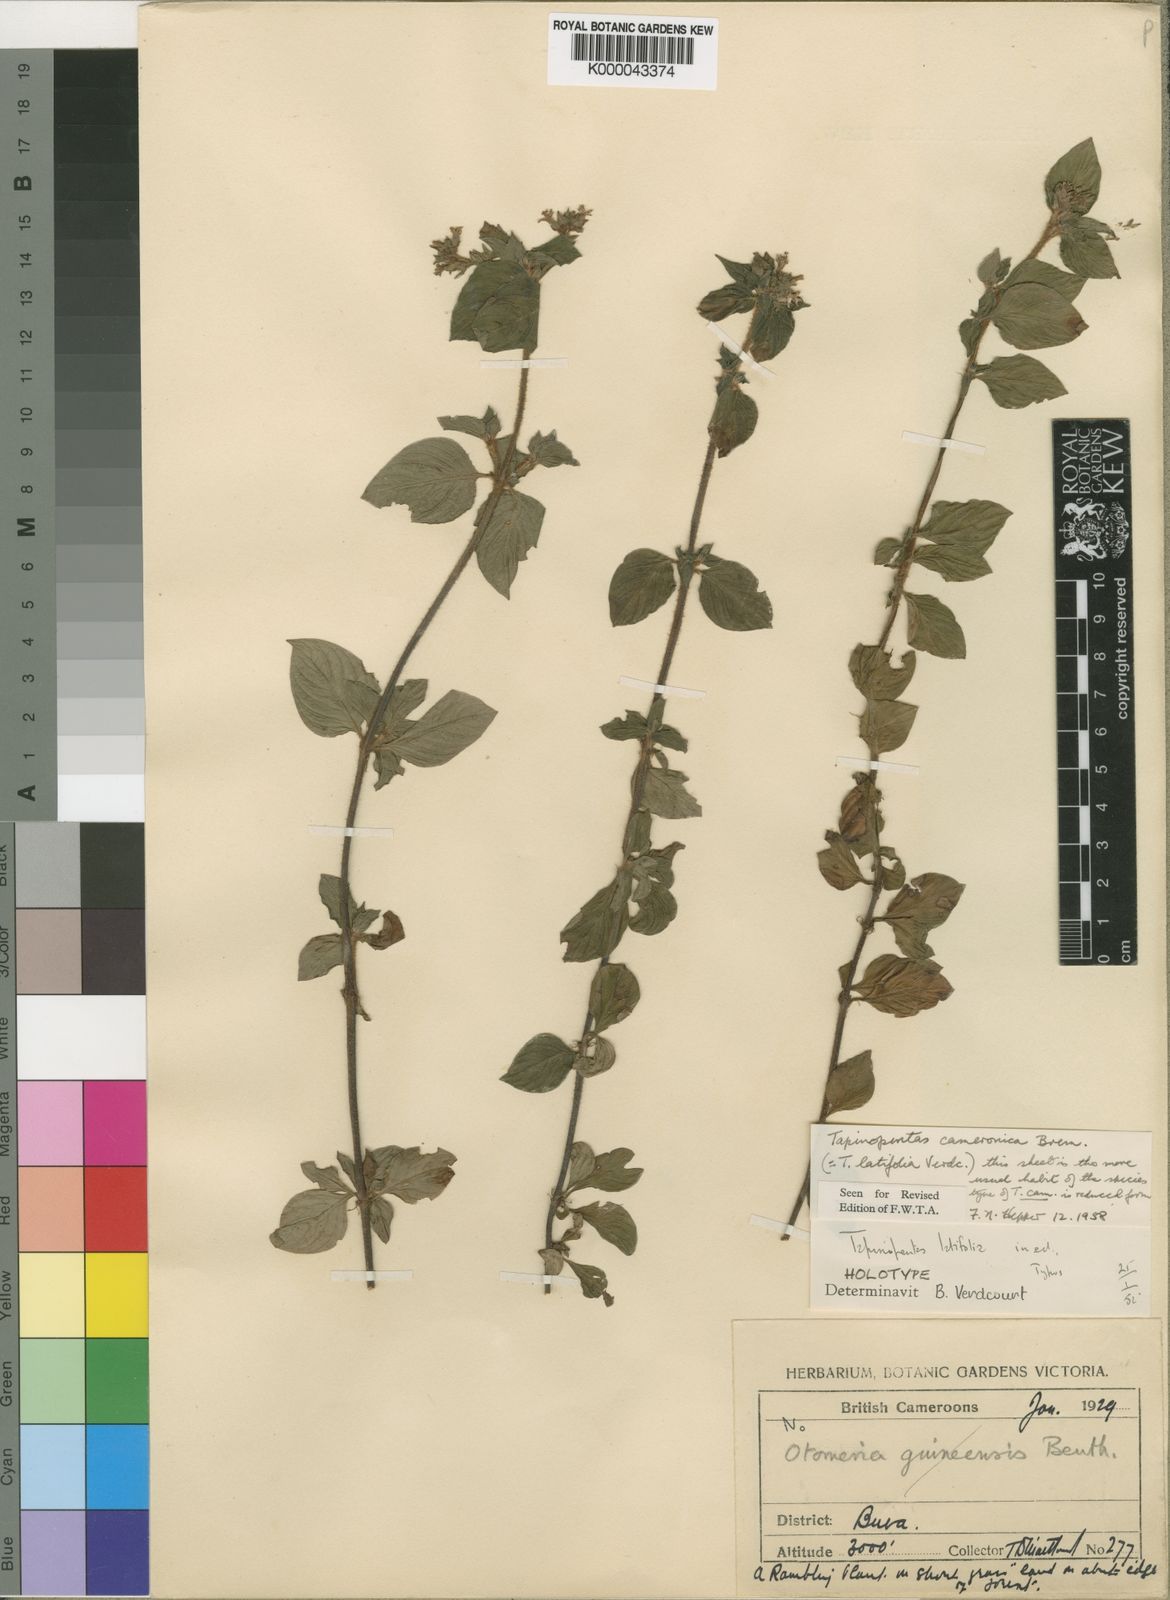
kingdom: Plantae
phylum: Tracheophyta
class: Magnoliopsida
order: Gentianales
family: Rubiaceae
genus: Otomeria
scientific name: Otomeria cameronica
